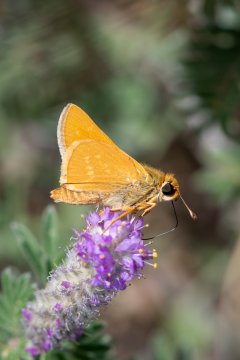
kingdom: Animalia
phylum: Arthropoda
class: Insecta
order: Lepidoptera
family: Hesperiidae
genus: Hesperia
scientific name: Hesperia leonardus
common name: Leonard's Skipper
